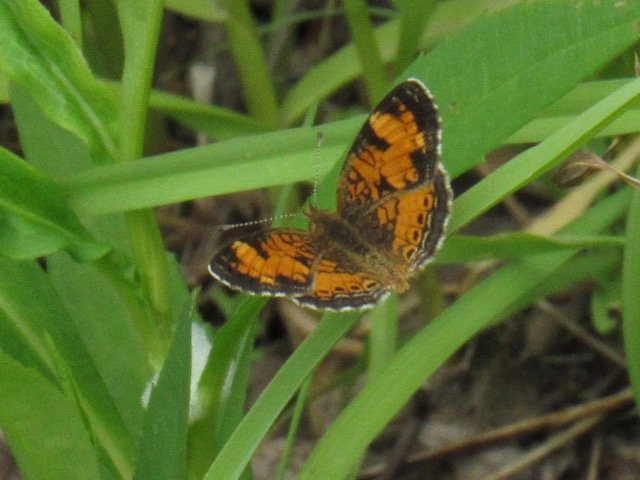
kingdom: Animalia
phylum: Arthropoda
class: Insecta
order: Lepidoptera
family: Nymphalidae
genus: Phyciodes
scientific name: Phyciodes tharos
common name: Pearl Crescent
